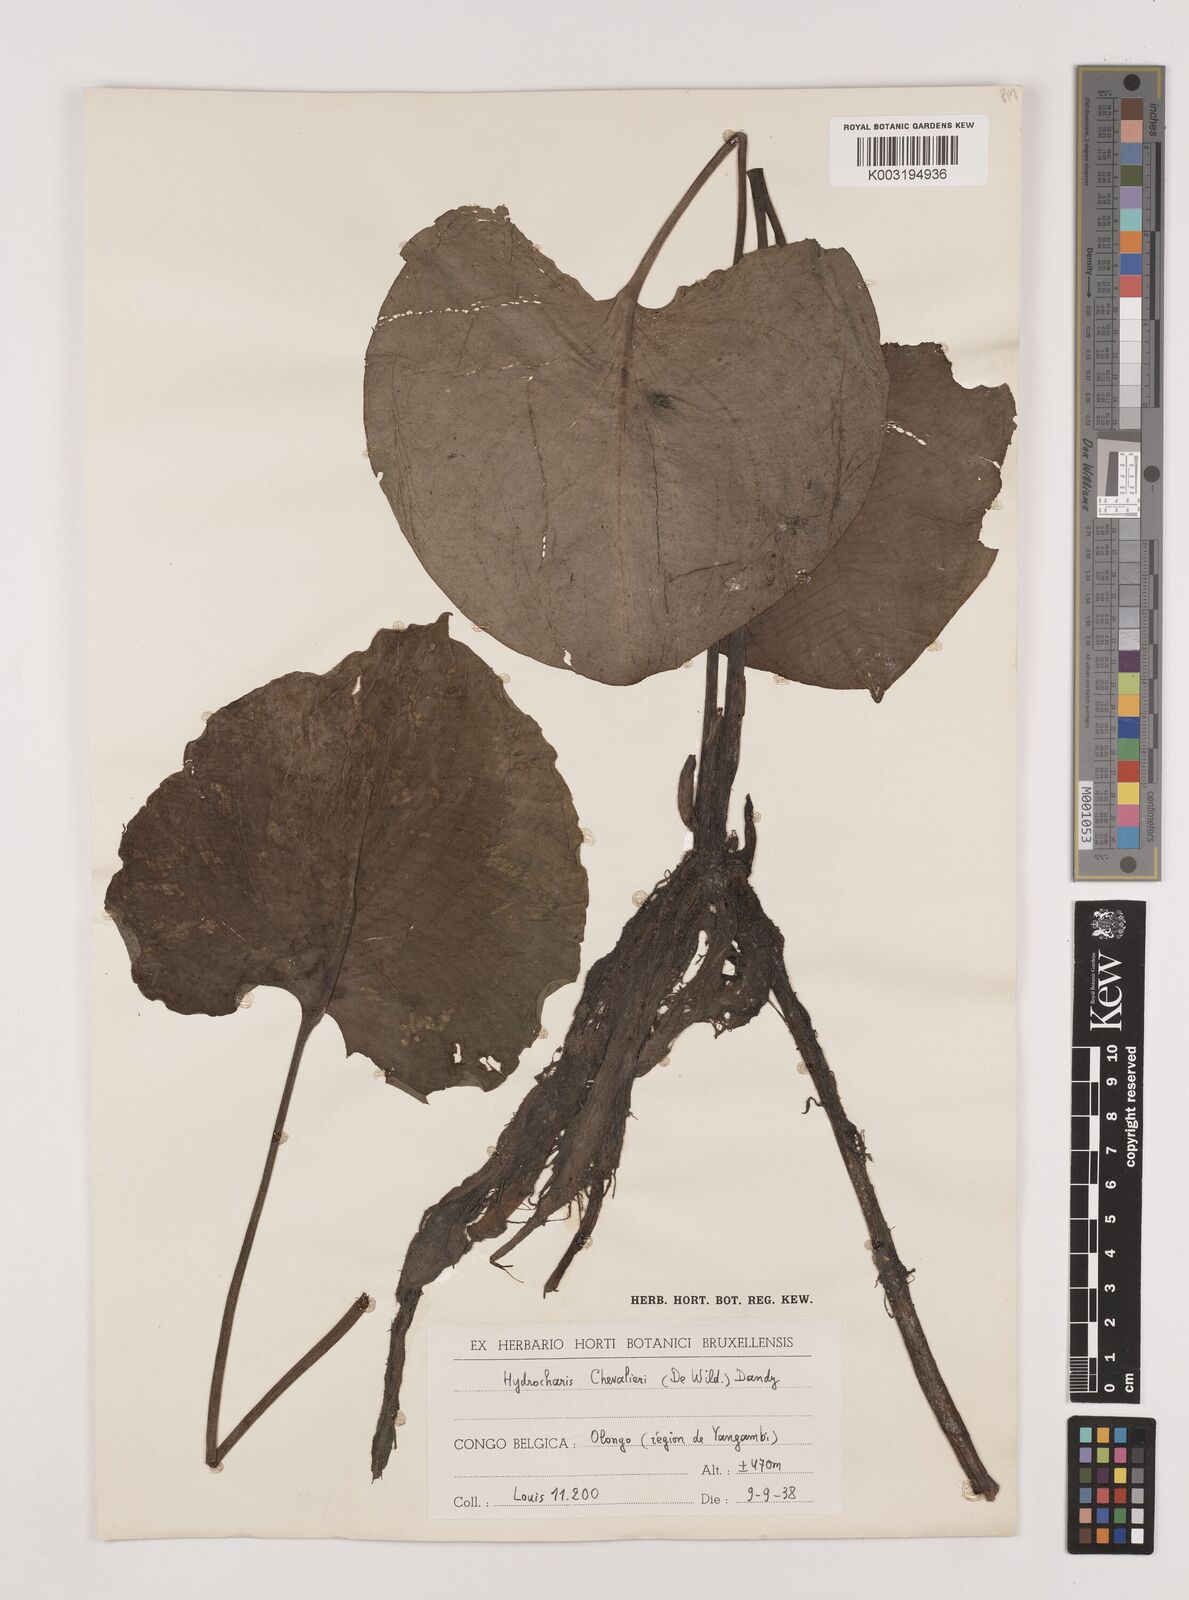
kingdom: Plantae
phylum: Tracheophyta
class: Liliopsida
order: Alismatales
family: Hydrocharitaceae
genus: Hydrocharis
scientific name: Hydrocharis chevalieri
